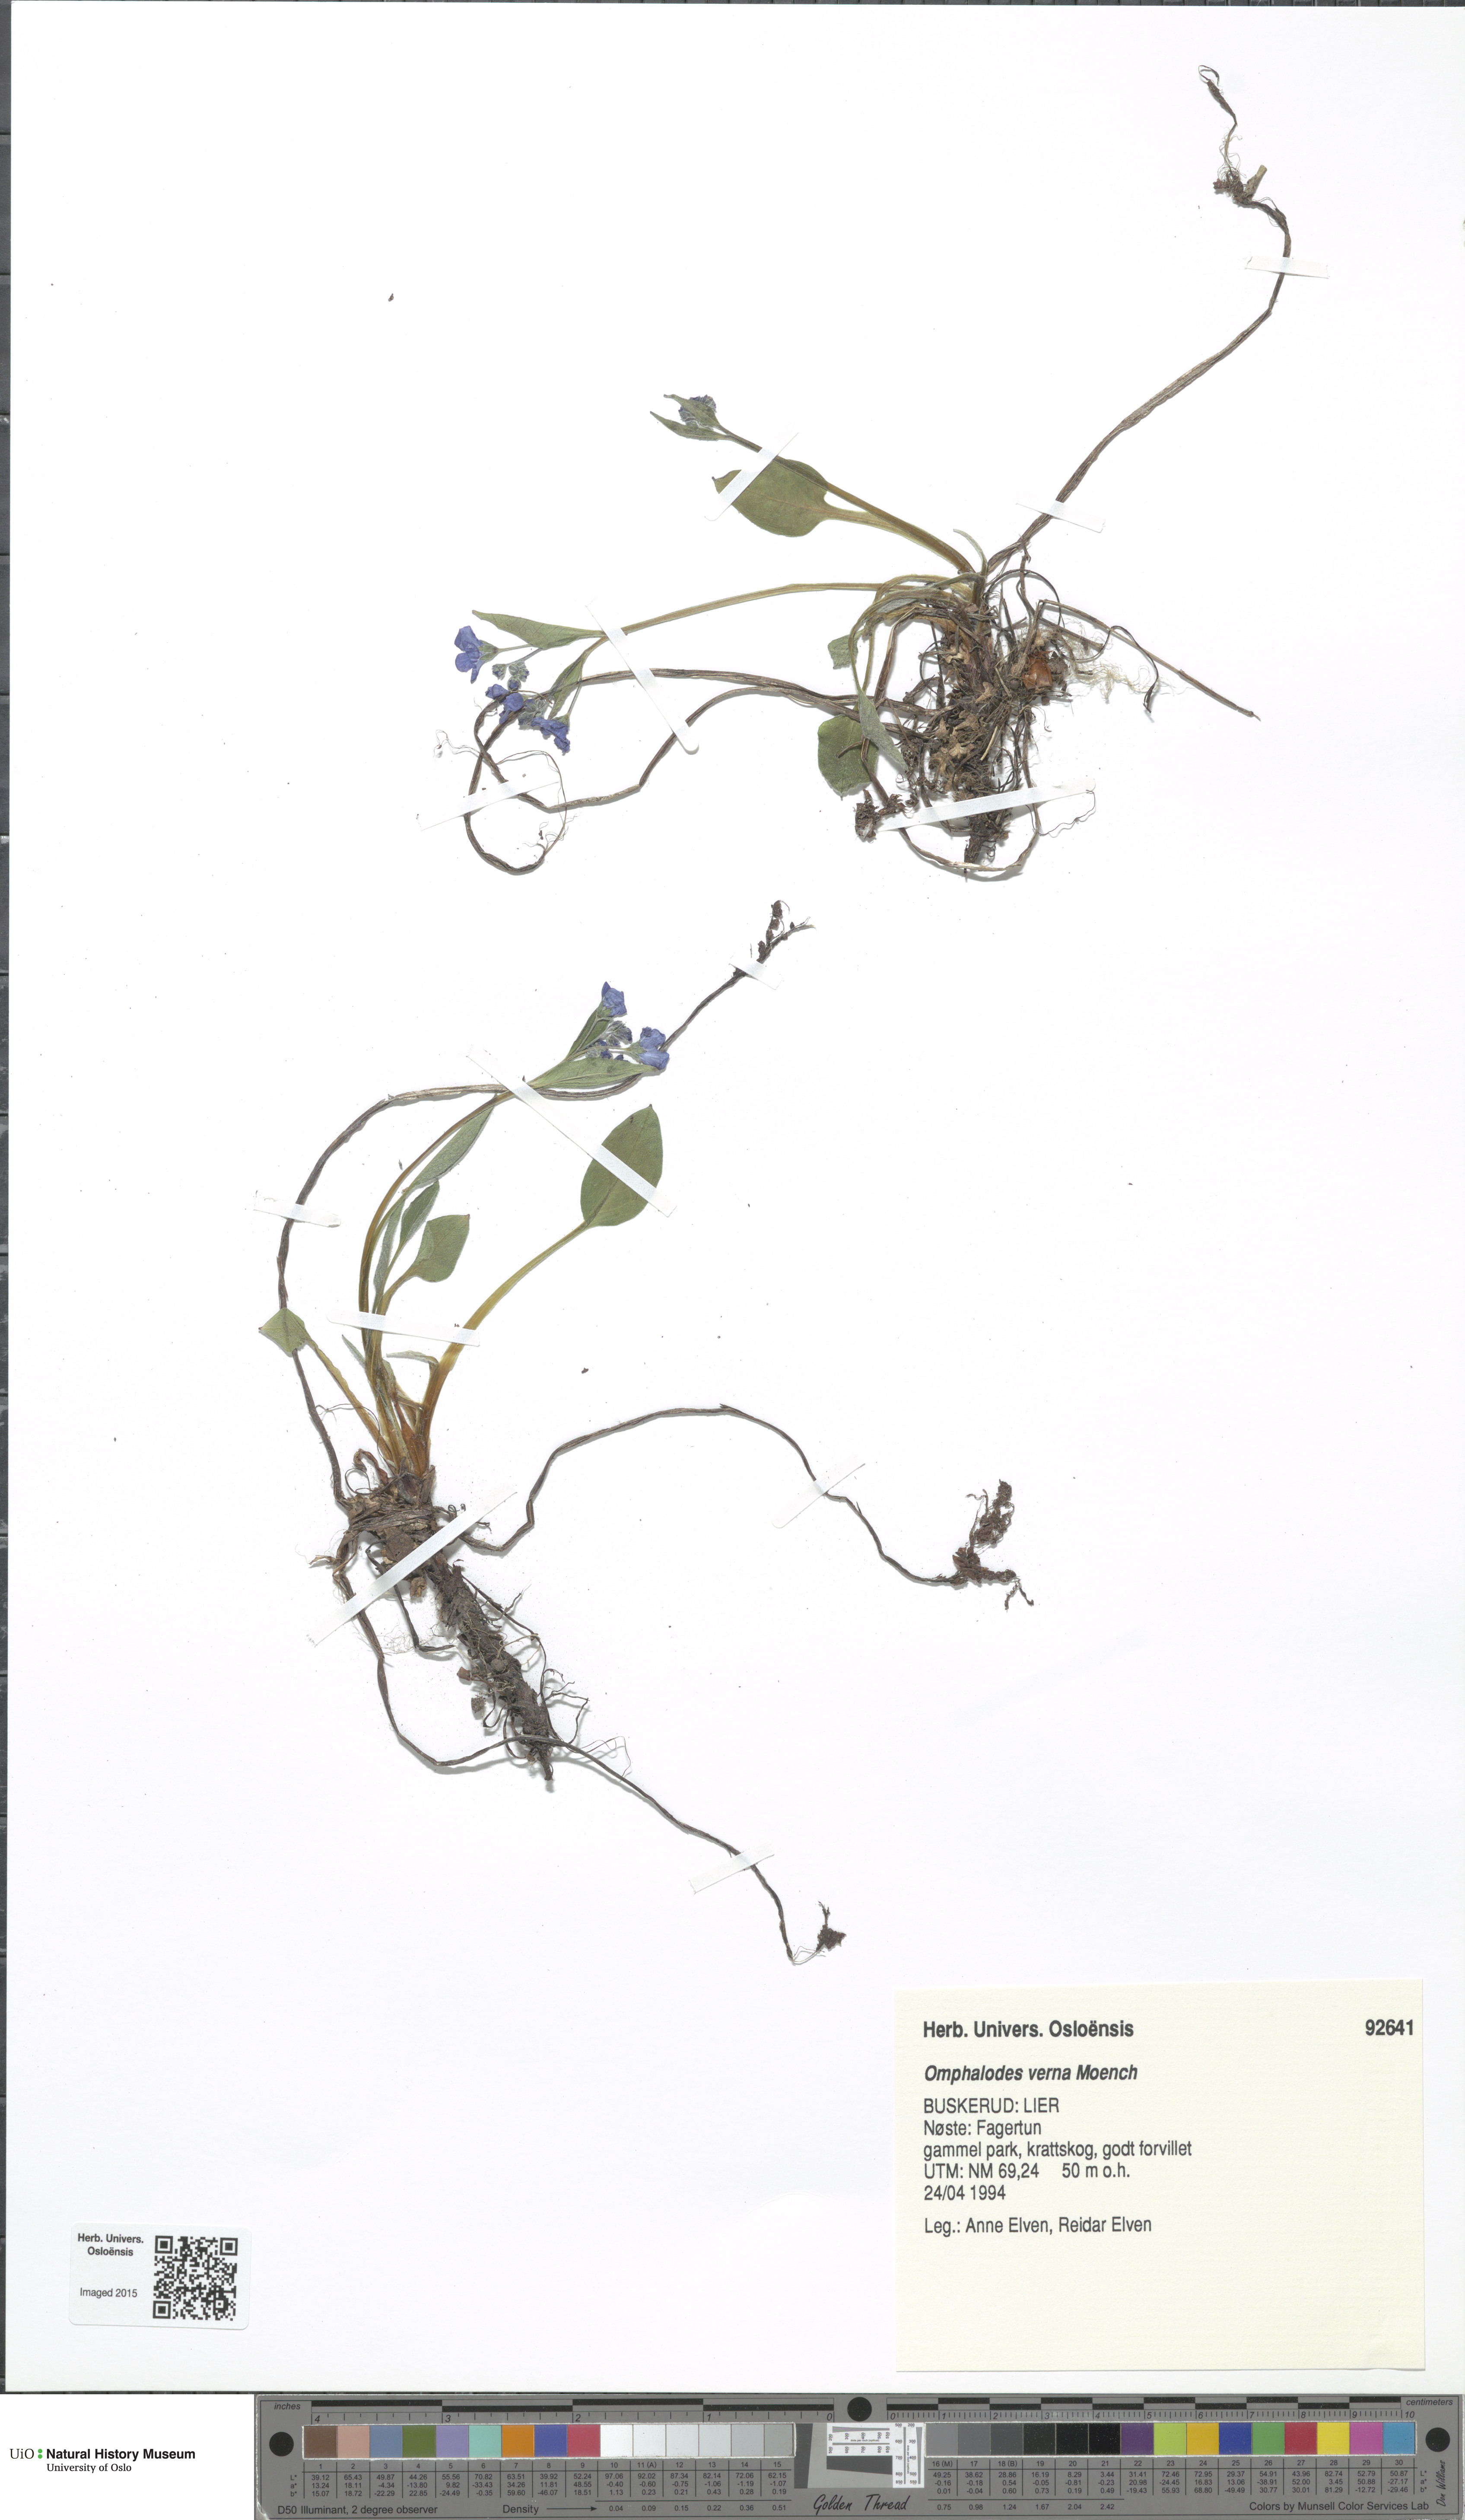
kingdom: Plantae
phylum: Tracheophyta
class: Magnoliopsida
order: Boraginales
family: Boraginaceae
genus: Omphalodes
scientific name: Omphalodes verna
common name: Blue-eyed-mary
